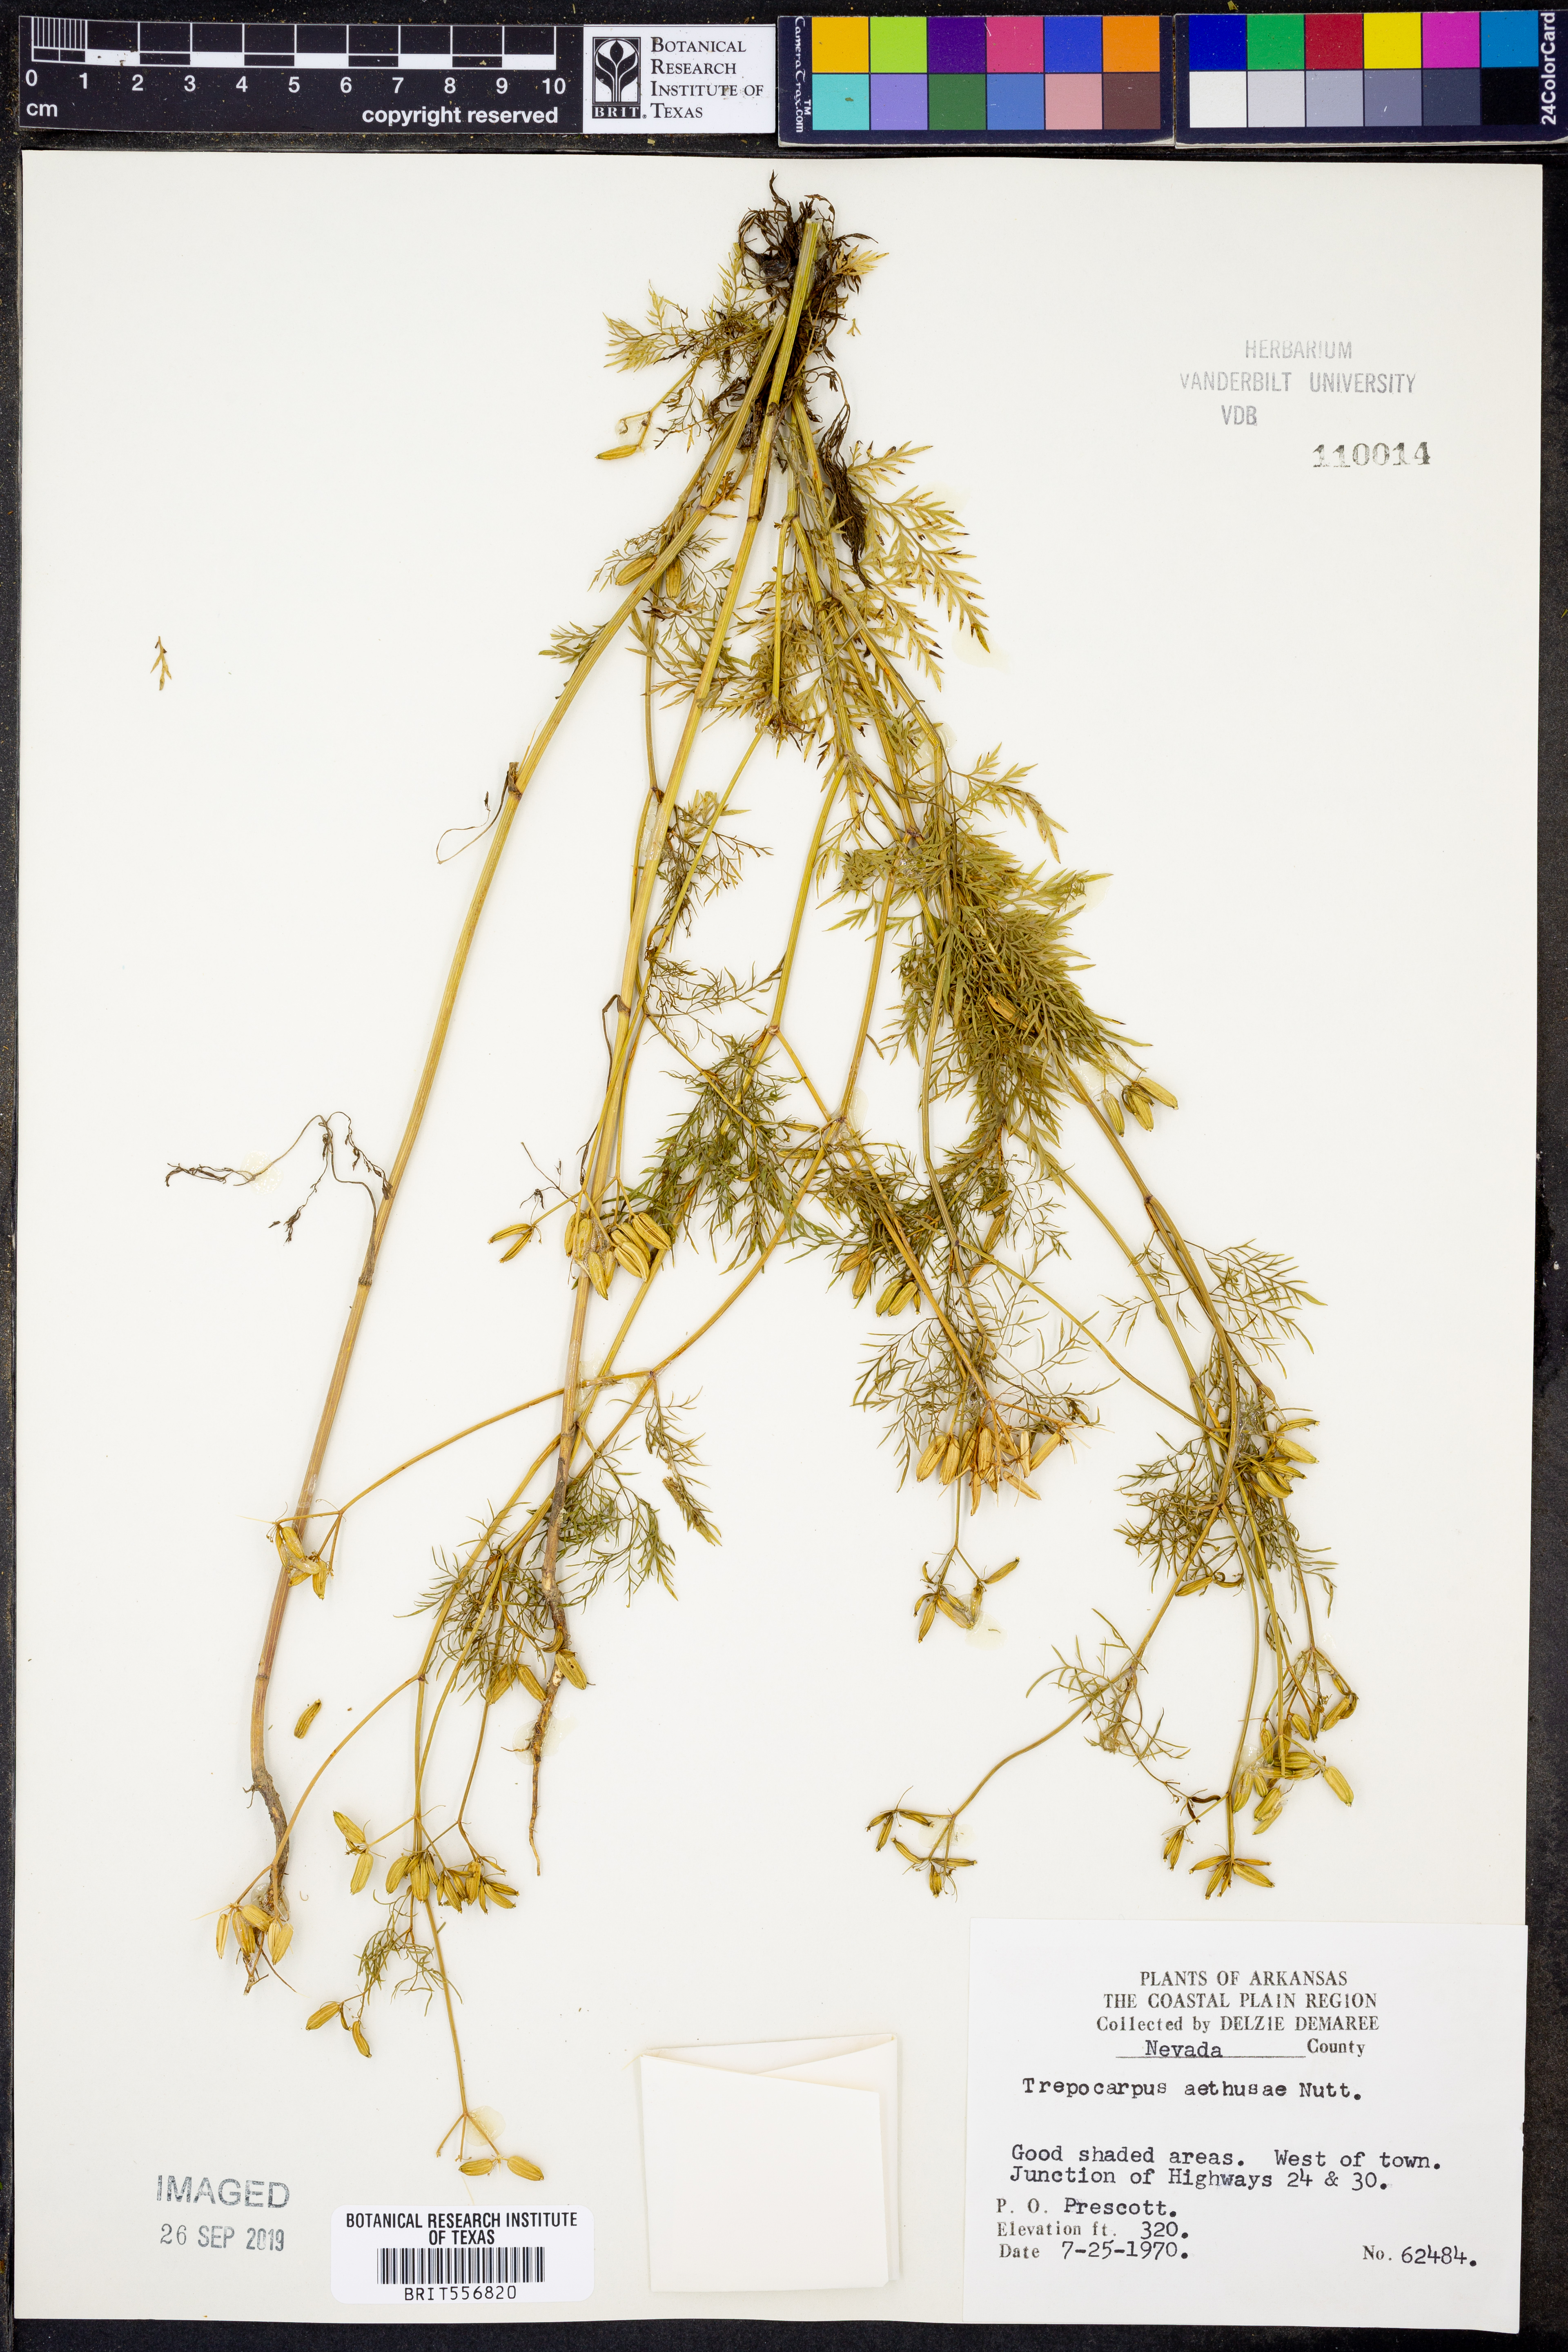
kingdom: Plantae
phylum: Tracheophyta
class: Magnoliopsida
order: Apiales
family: Apiaceae
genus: Trepocarpus
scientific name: Trepocarpus aethusae
